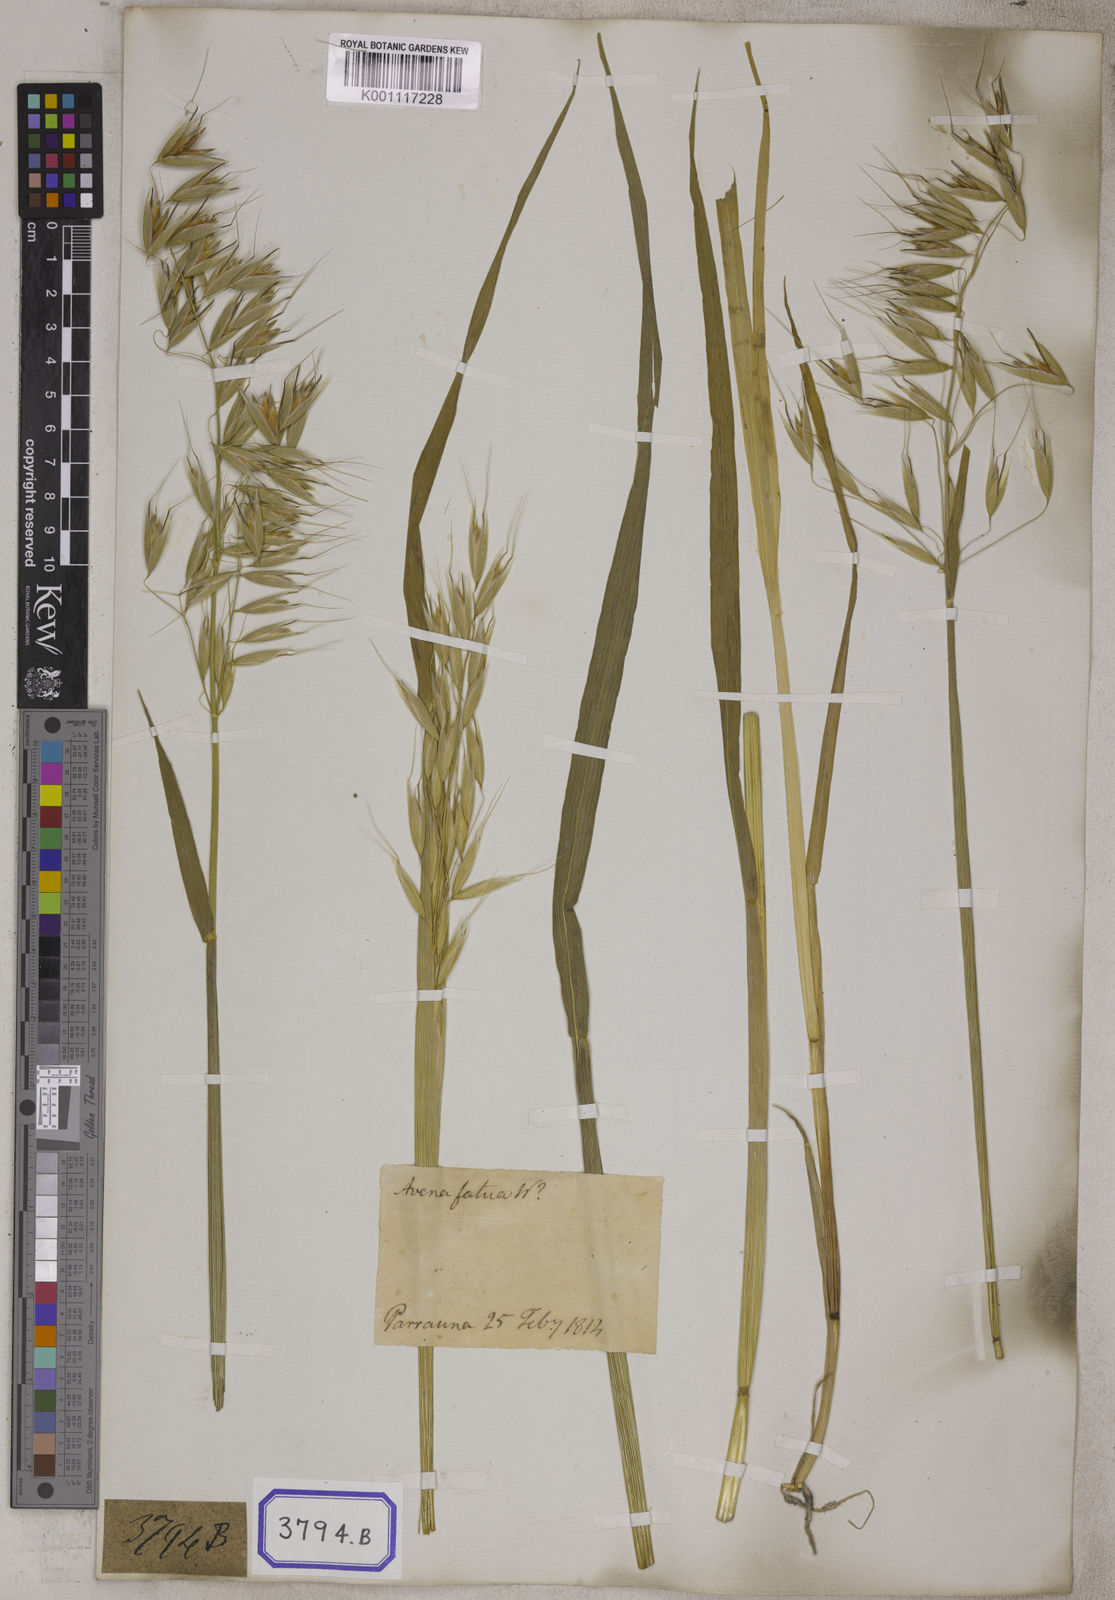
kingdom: Plantae
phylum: Tracheophyta
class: Liliopsida
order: Poales
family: Poaceae
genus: Avena
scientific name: Avena sativa
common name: Oat
